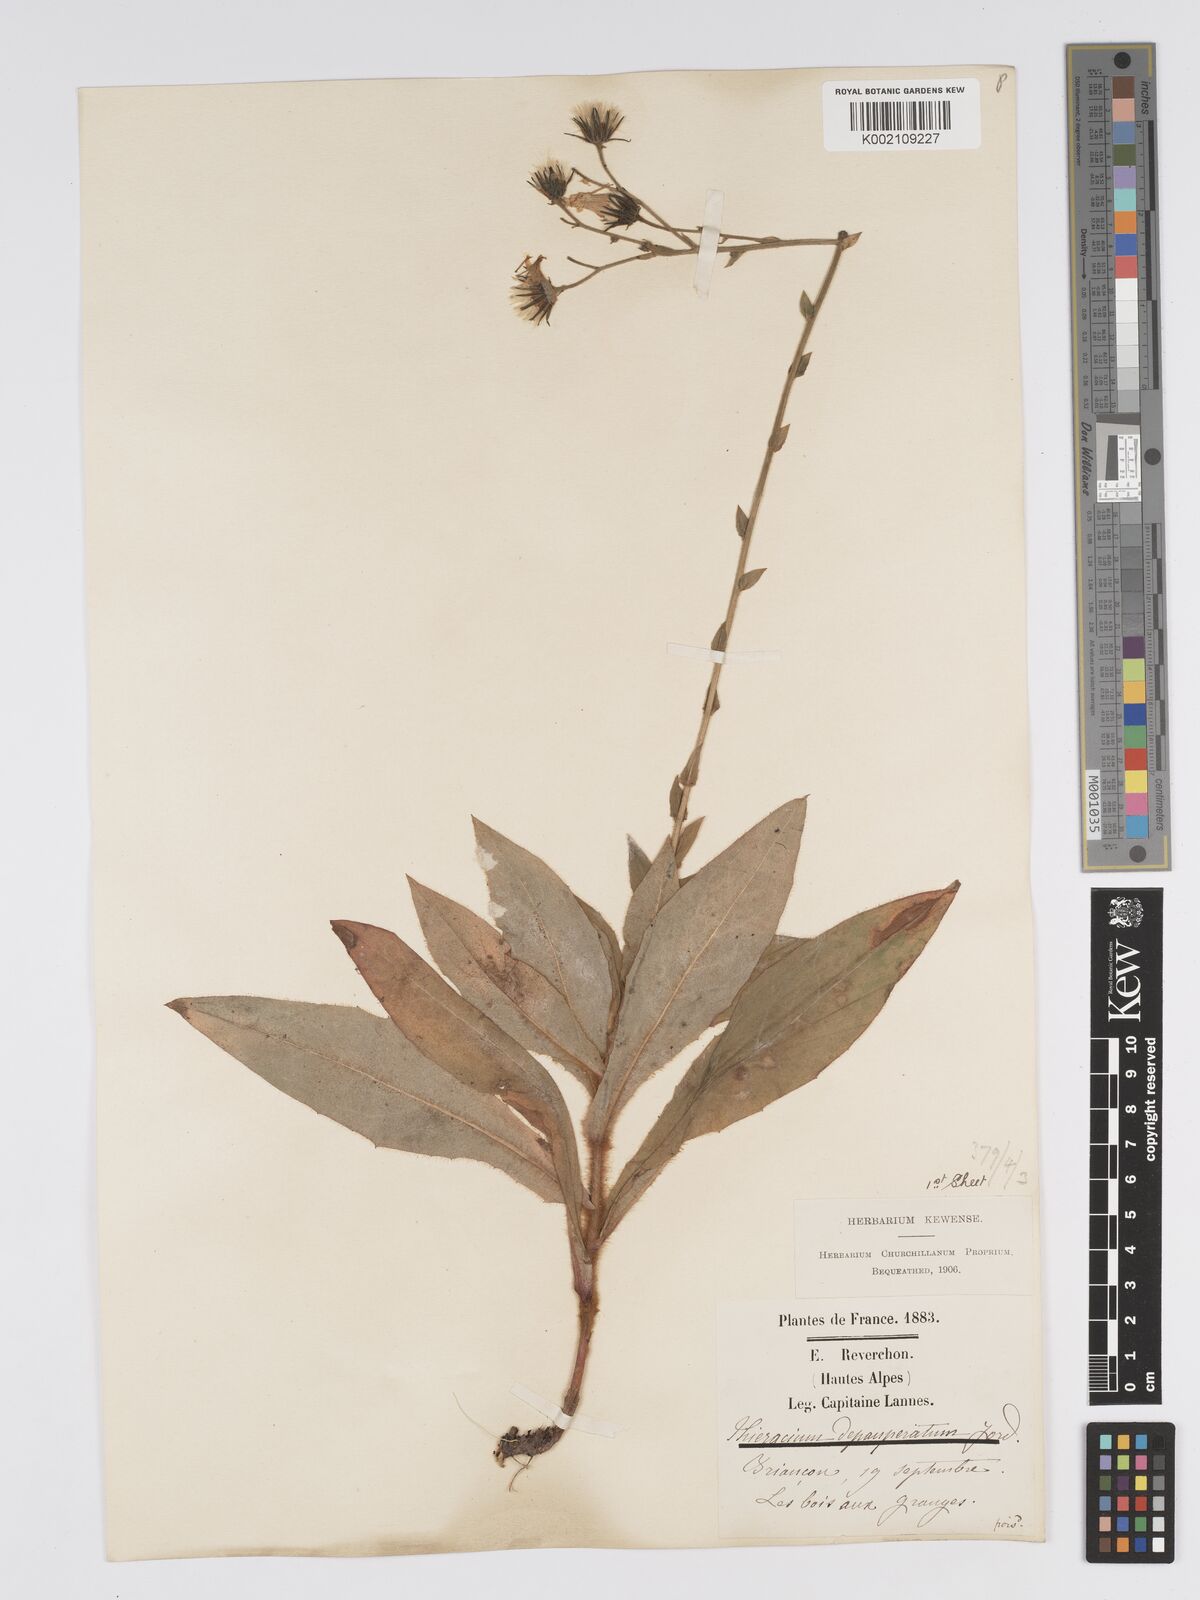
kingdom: Plantae
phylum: Tracheophyta
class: Magnoliopsida
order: Asterales
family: Asteraceae
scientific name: Asteraceae
